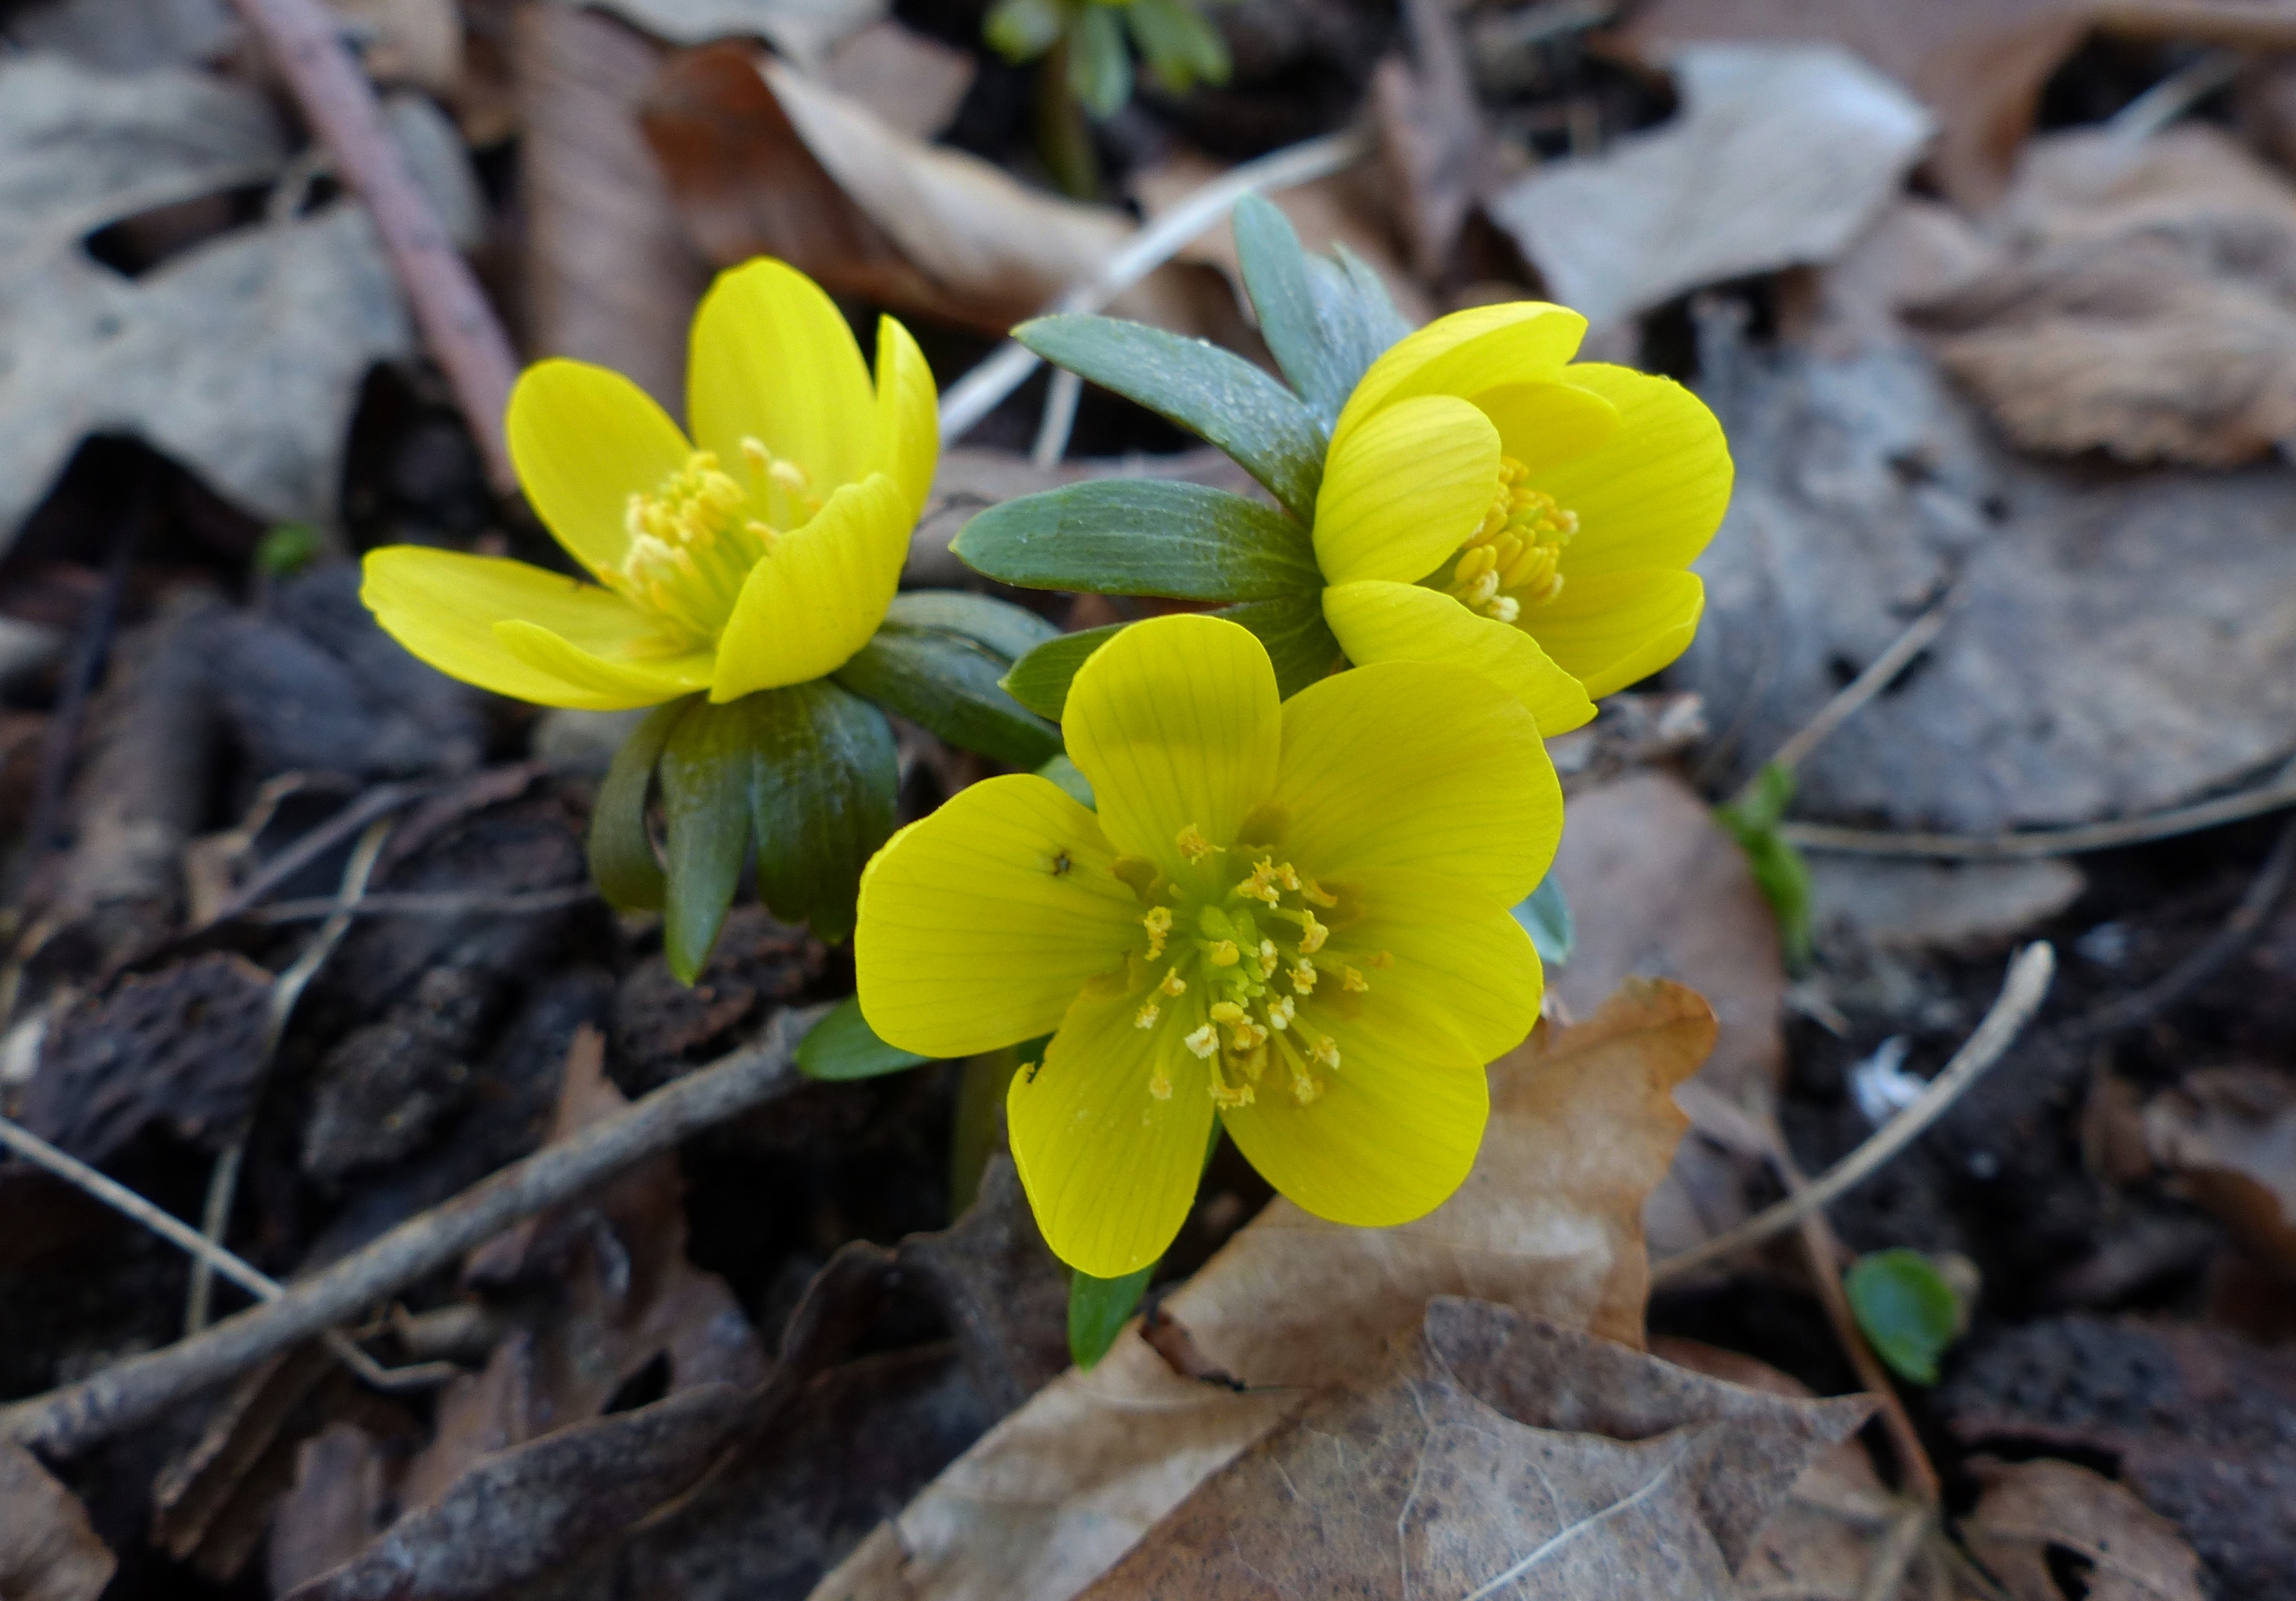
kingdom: Plantae
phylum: Tracheophyta
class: Magnoliopsida
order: Ranunculales
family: Ranunculaceae
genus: Eranthis
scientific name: Eranthis hyemalis
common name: Erantis
